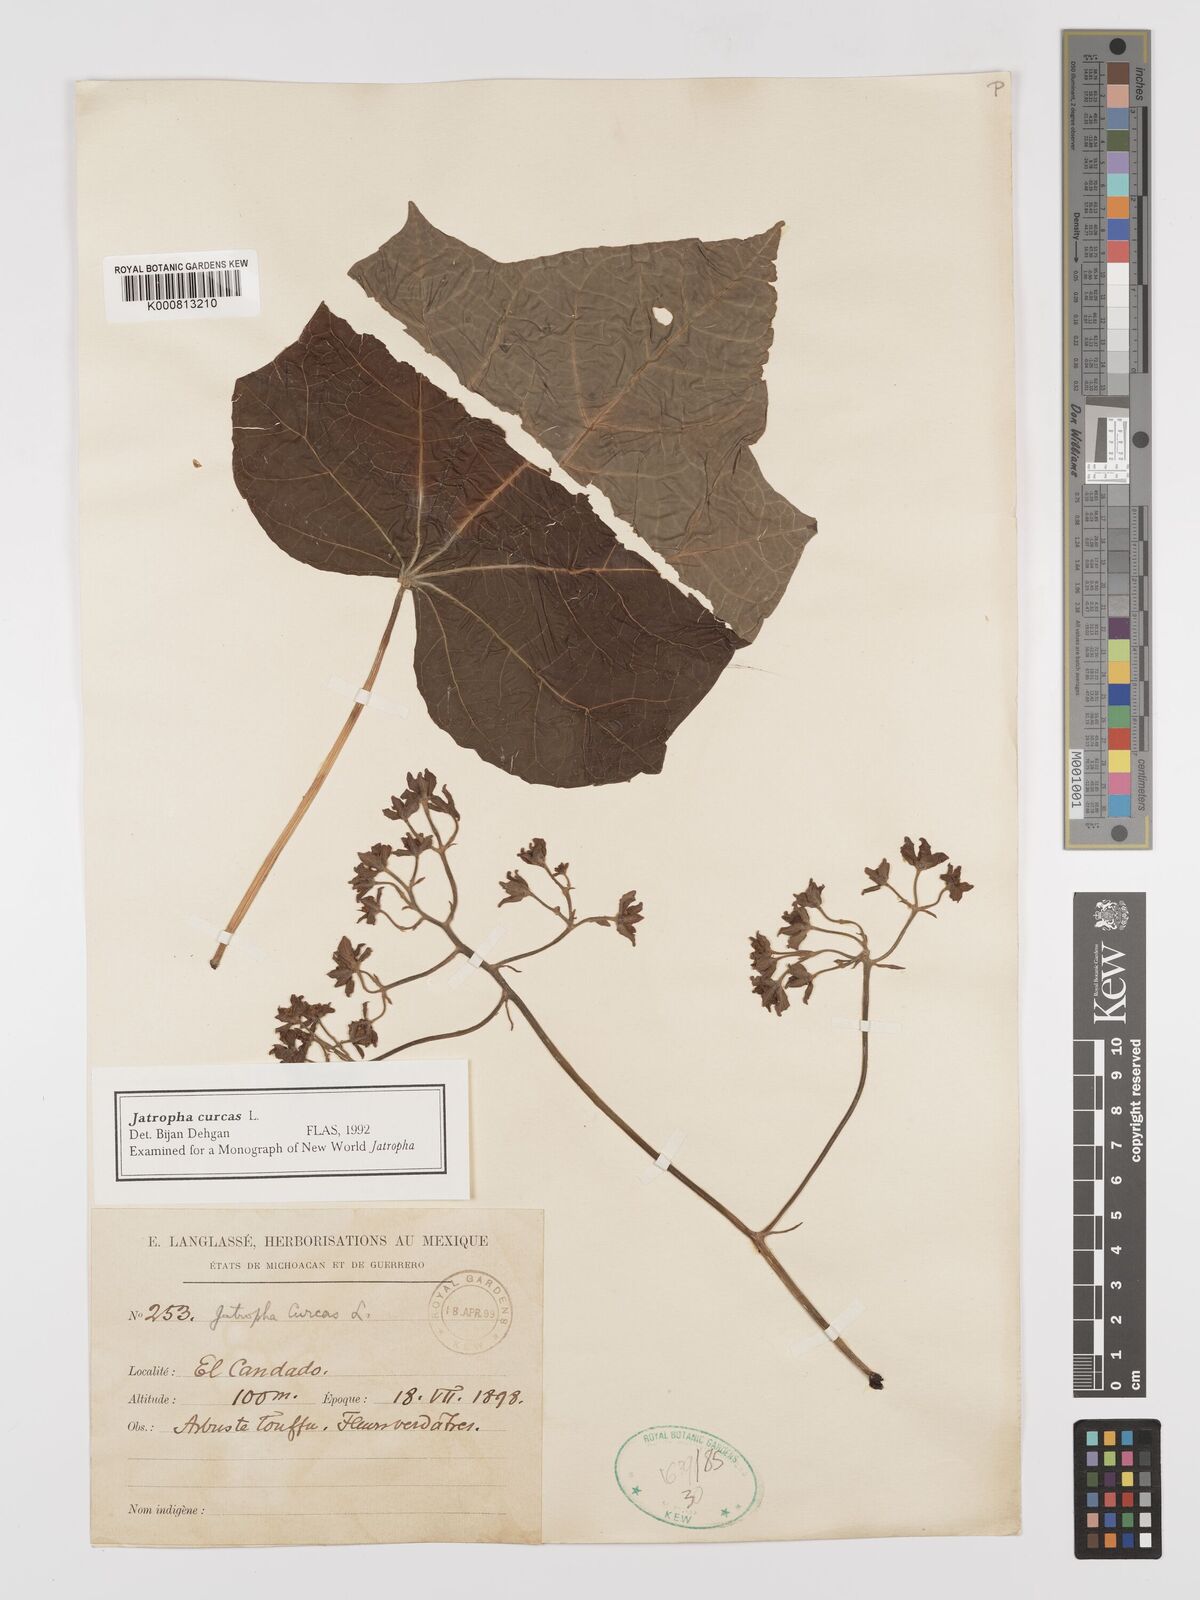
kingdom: Plantae
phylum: Tracheophyta
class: Magnoliopsida
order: Malpighiales
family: Euphorbiaceae
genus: Jatropha
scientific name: Jatropha curcas
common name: Barbados nut
